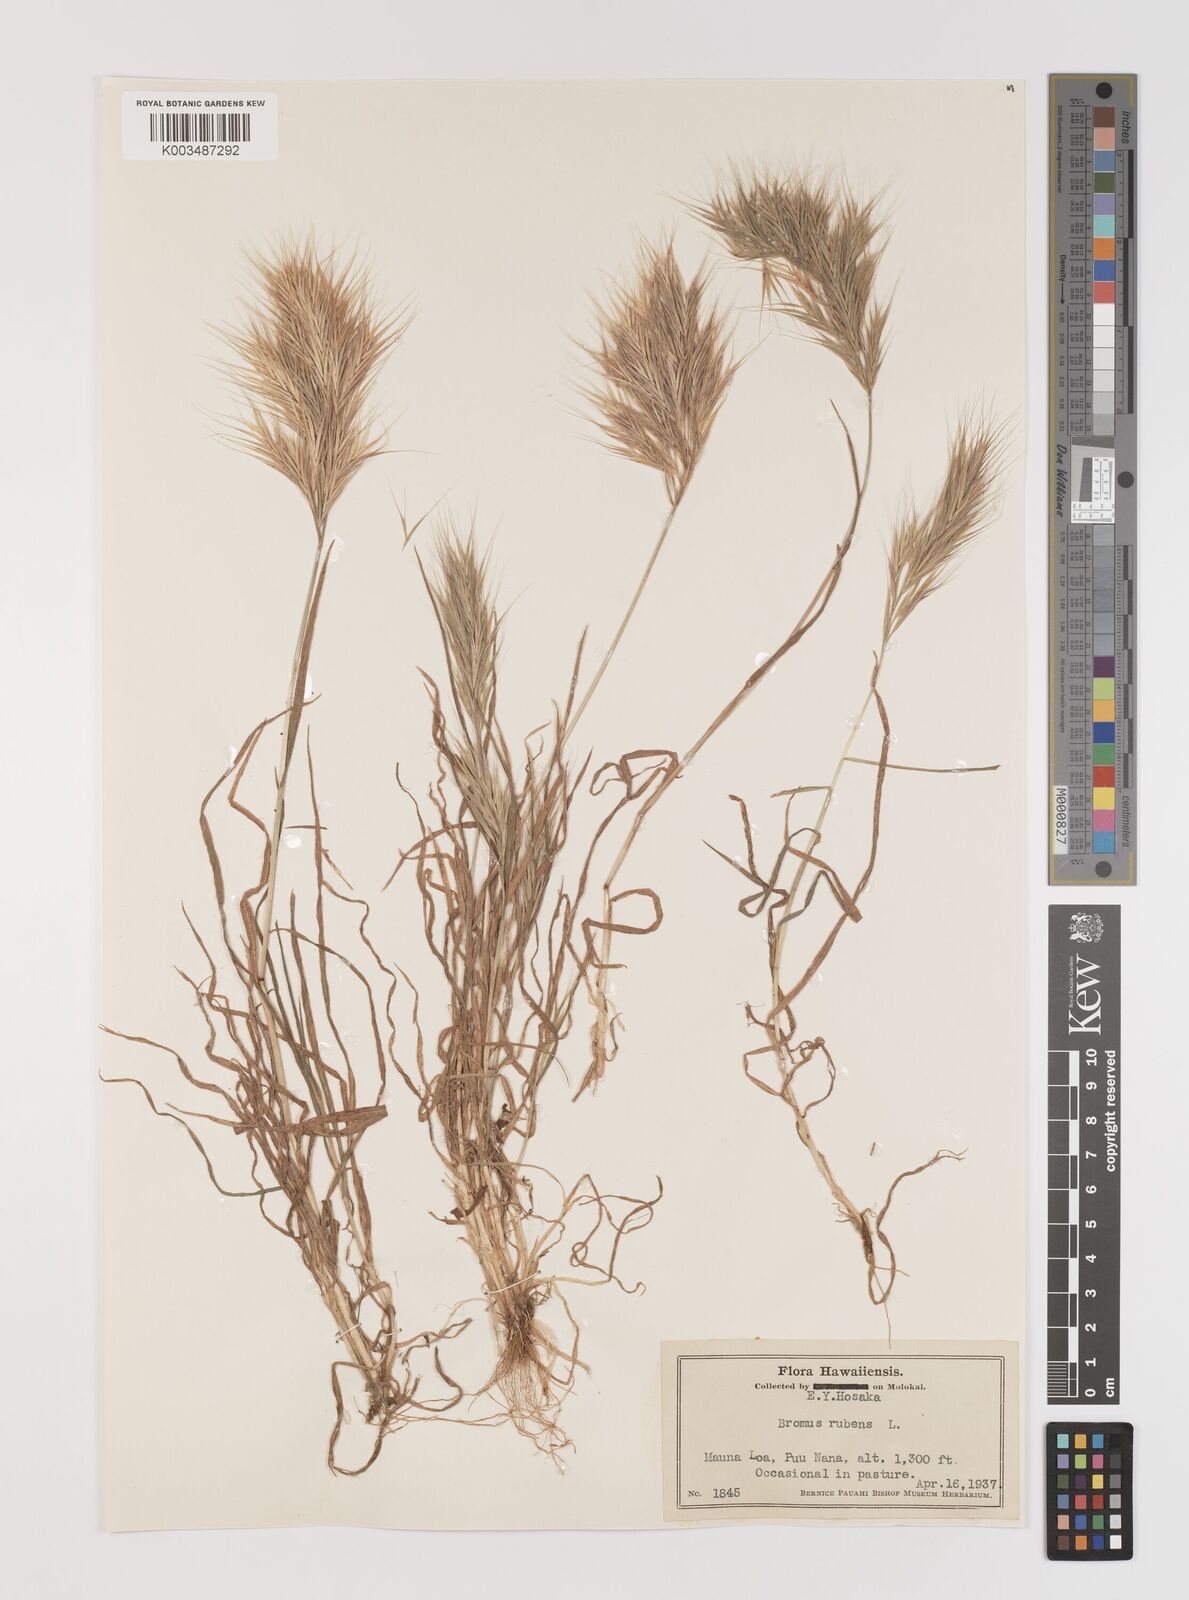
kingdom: Plantae
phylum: Tracheophyta
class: Liliopsida
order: Poales
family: Poaceae
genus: Bromus
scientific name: Bromus rubens
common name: Red brome
